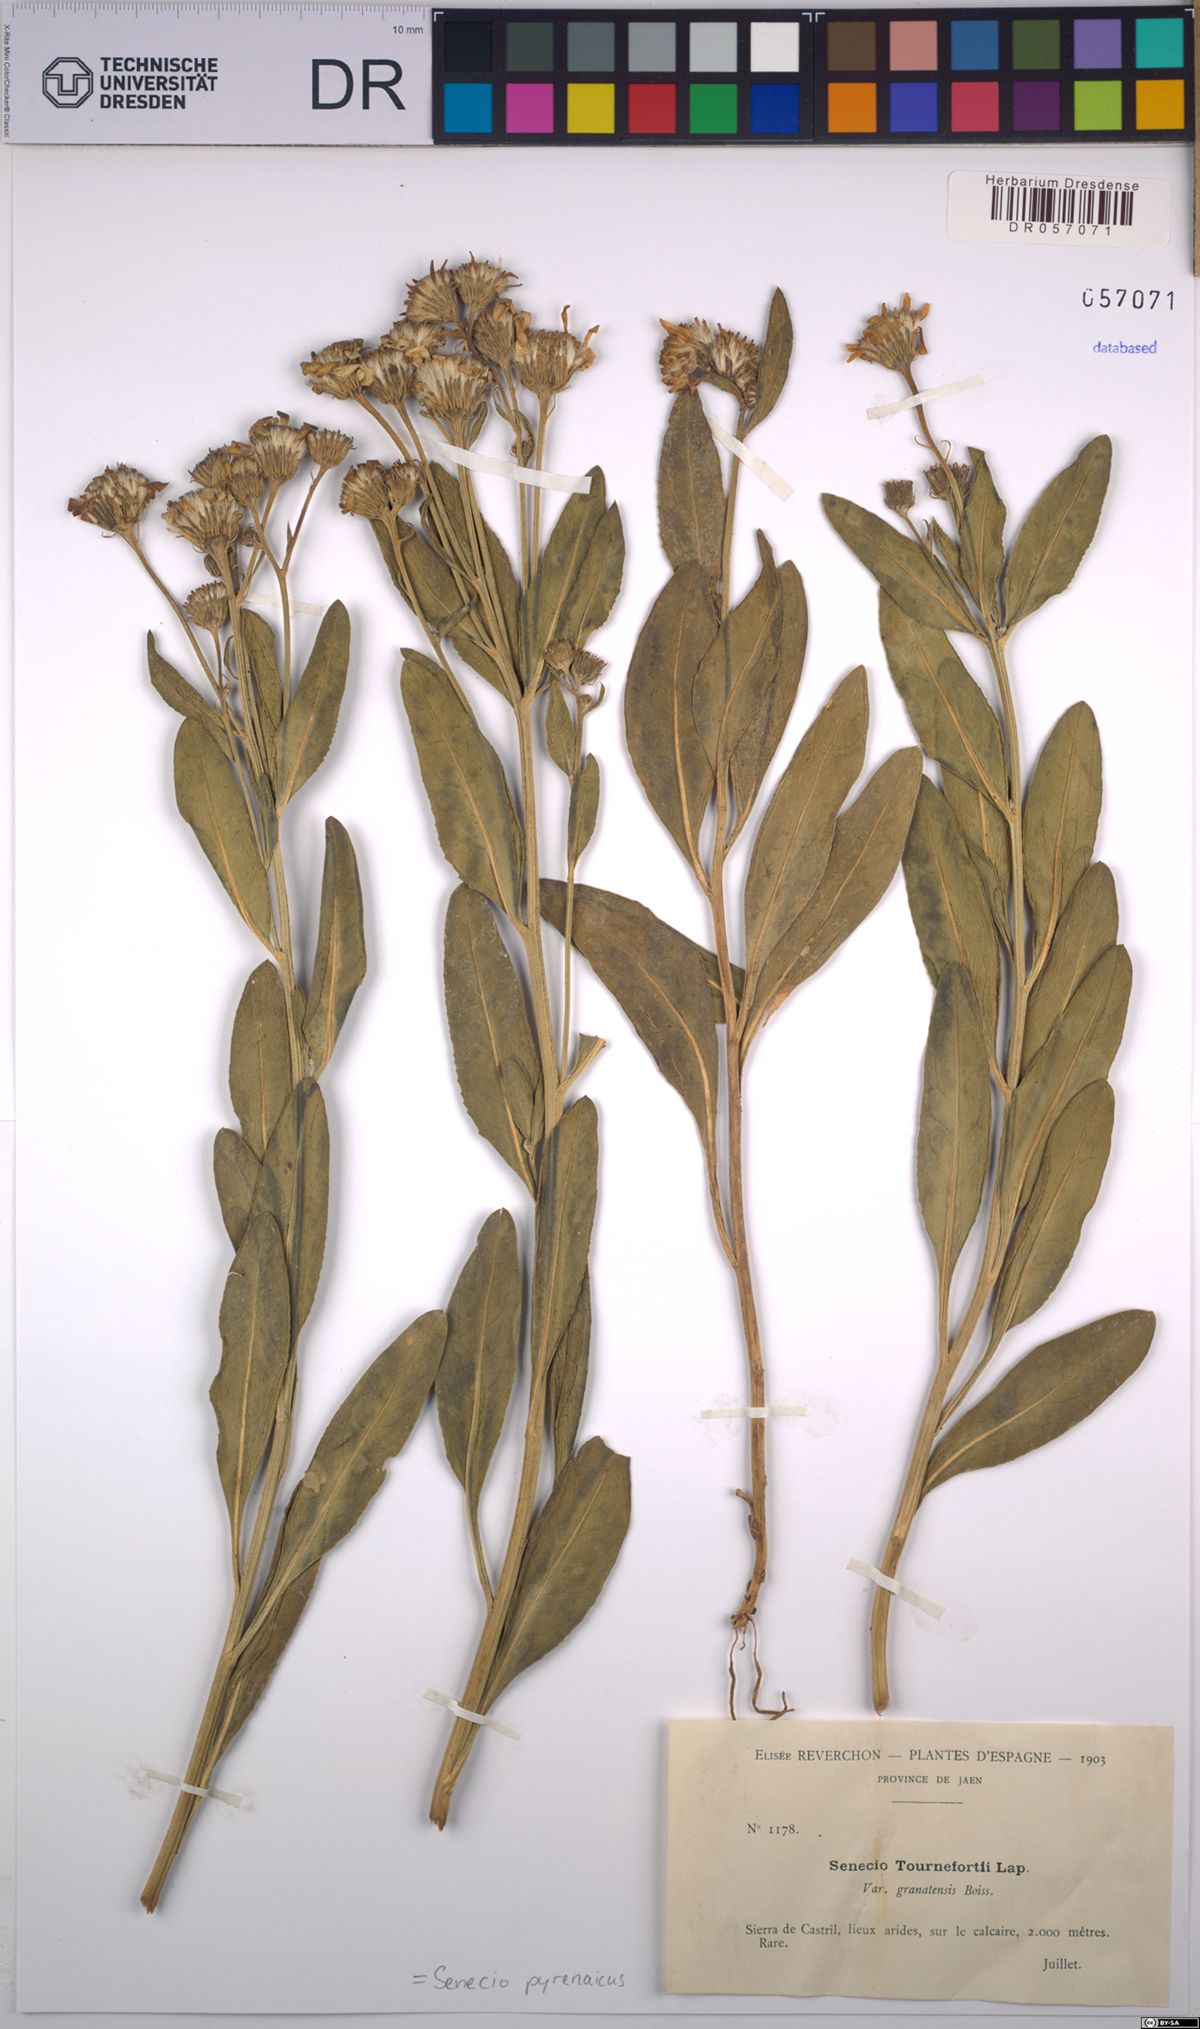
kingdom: Plantae
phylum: Tracheophyta
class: Magnoliopsida
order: Asterales
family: Asteraceae
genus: Senecio
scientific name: Senecio pyrenaicus
